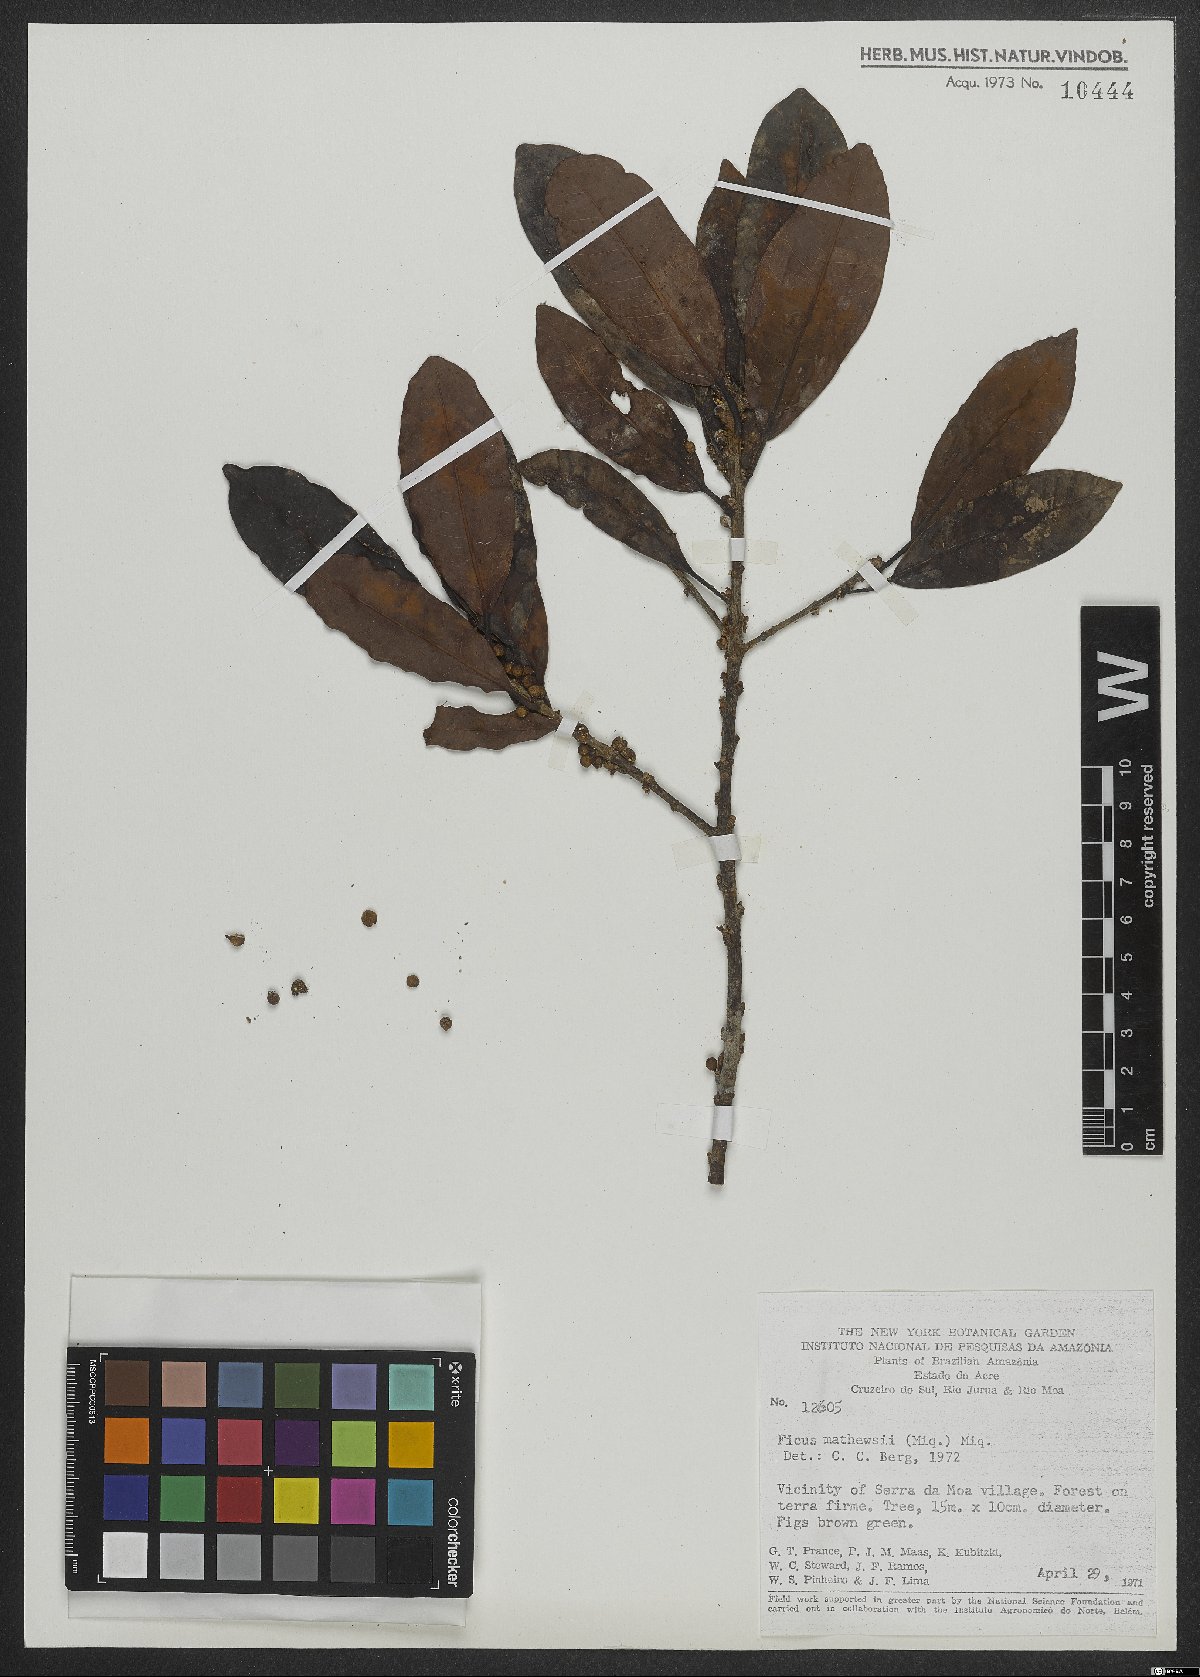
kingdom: Plantae
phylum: Tracheophyta
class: Magnoliopsida
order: Rosales
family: Moraceae
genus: Ficus
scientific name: Ficus mathewsii
